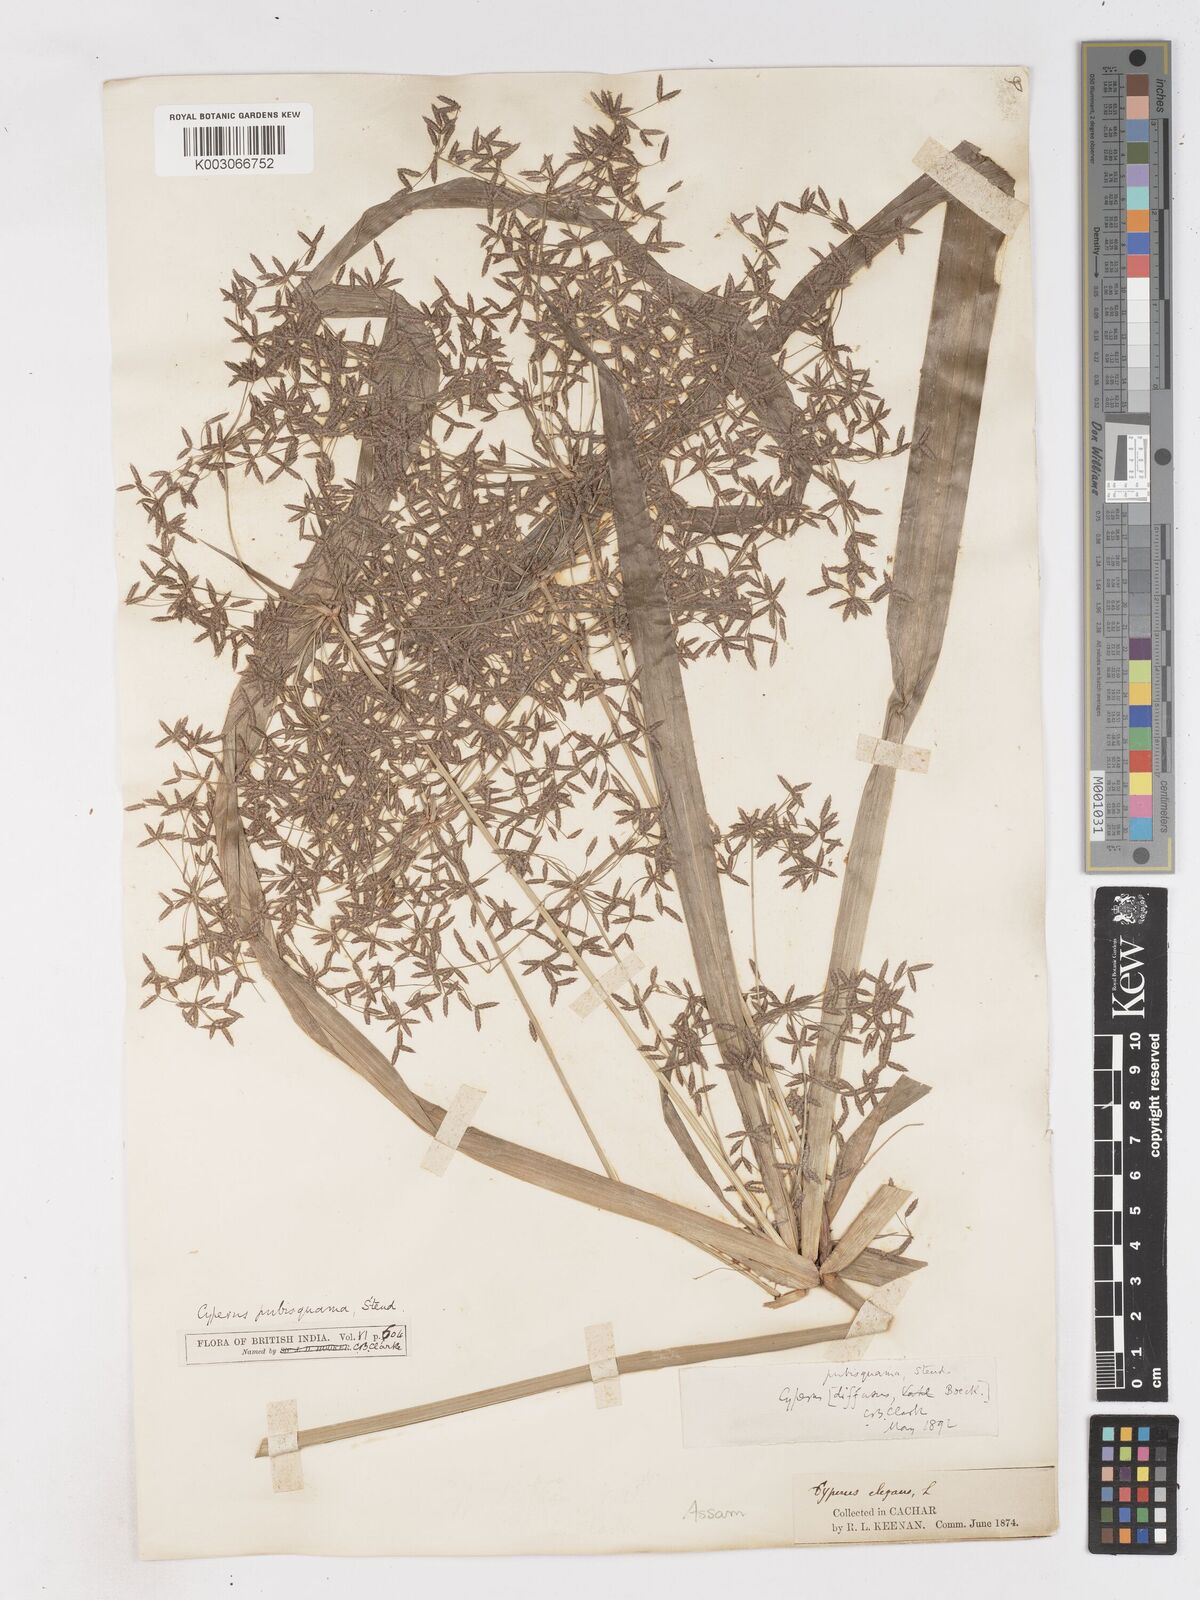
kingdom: Plantae
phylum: Tracheophyta
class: Liliopsida
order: Poales
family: Cyperaceae
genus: Cyperus
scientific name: Cyperus diffusus
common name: Dwarf umbrella grass
